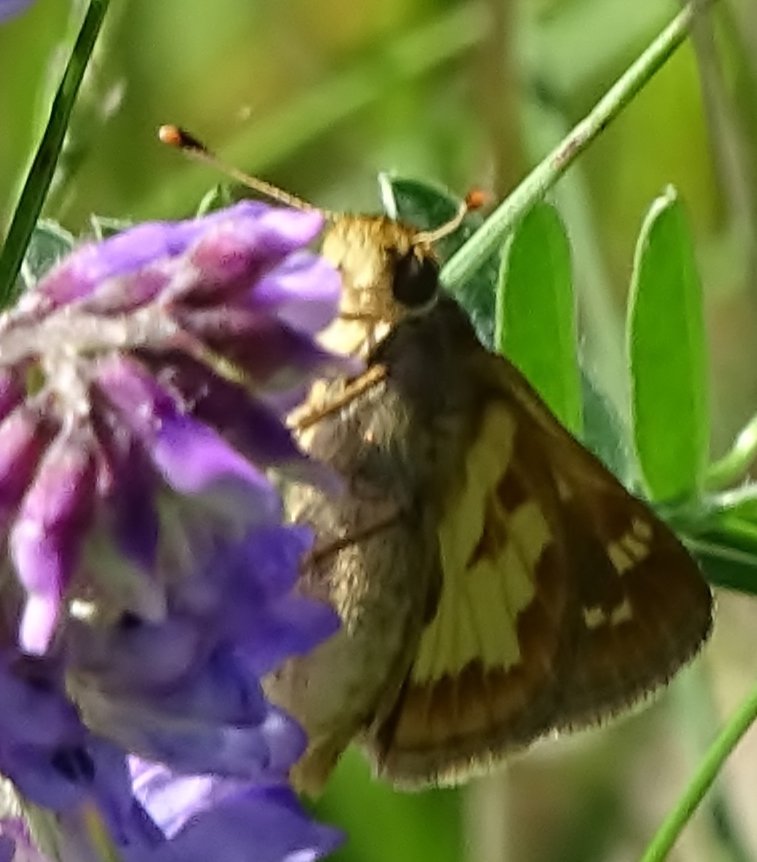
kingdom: Animalia
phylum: Arthropoda
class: Insecta
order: Lepidoptera
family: Hesperiidae
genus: Polites
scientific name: Polites coras
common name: Peck's Skipper
